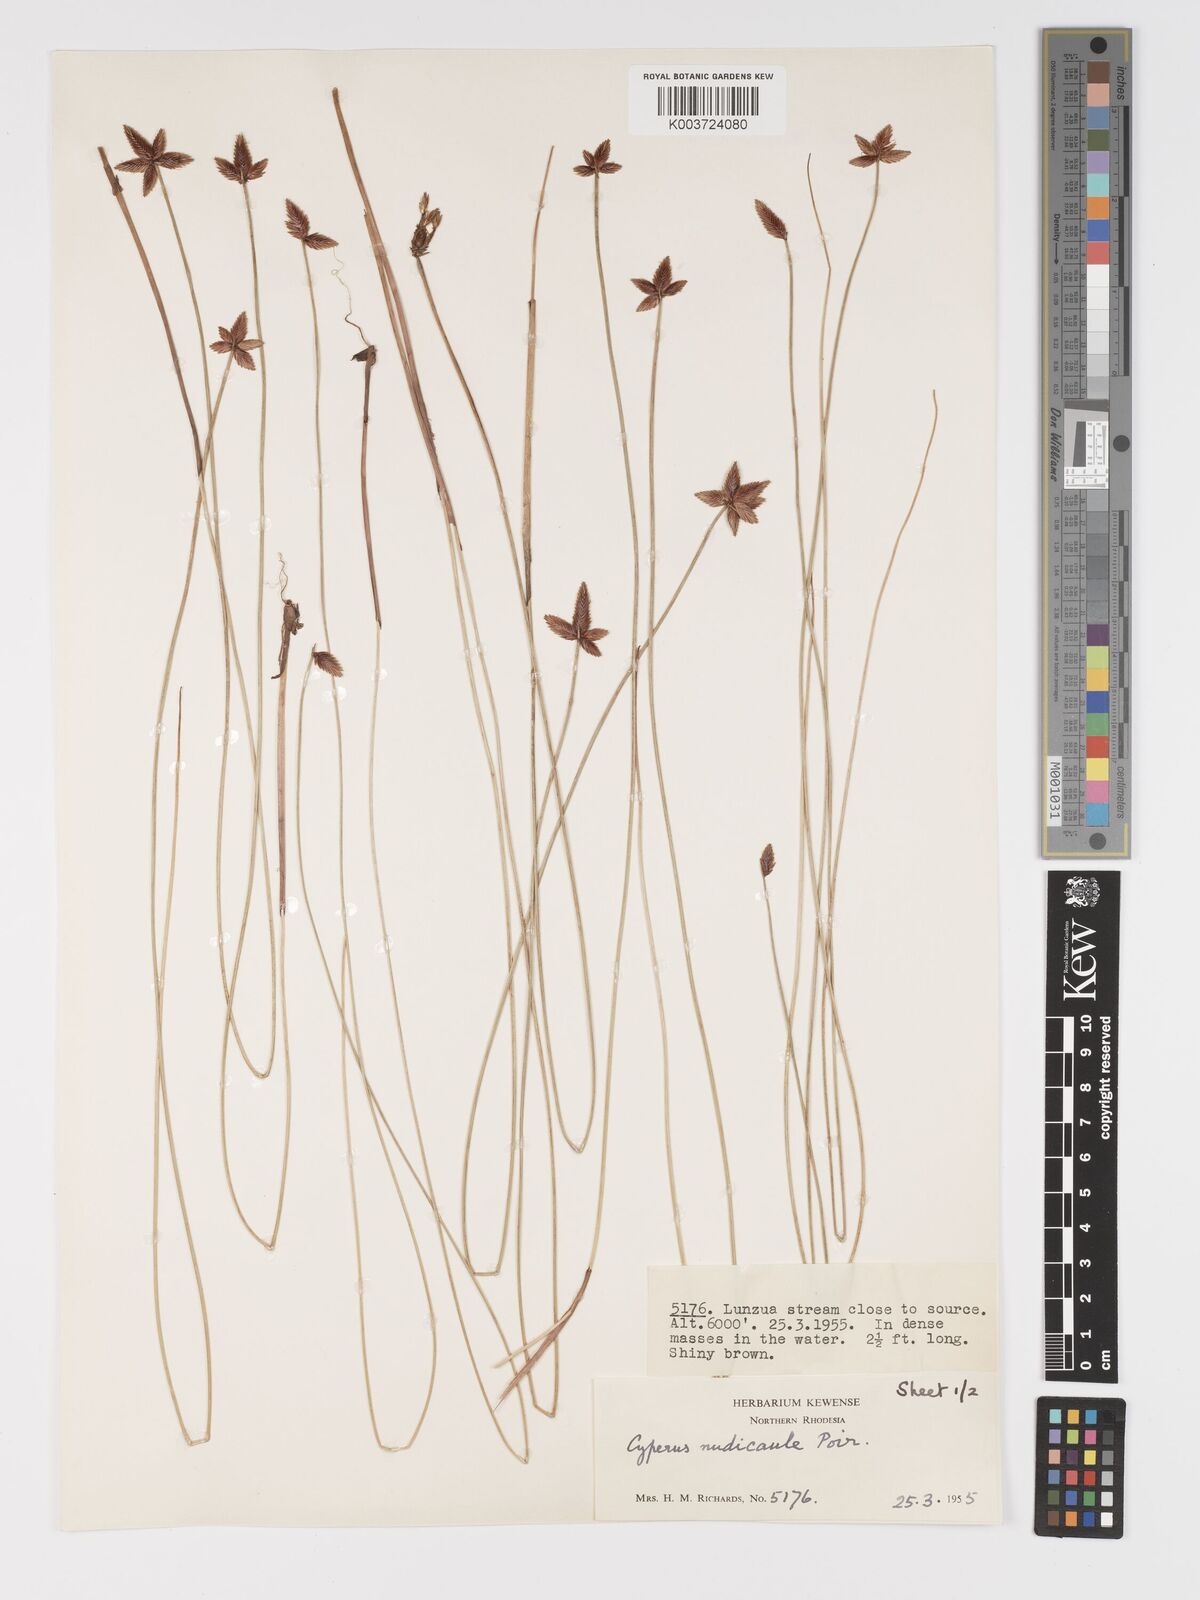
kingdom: Plantae
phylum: Tracheophyta
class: Liliopsida
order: Poales
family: Cyperaceae
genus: Cyperus
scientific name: Cyperus compressus
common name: Poorland flatsedge
